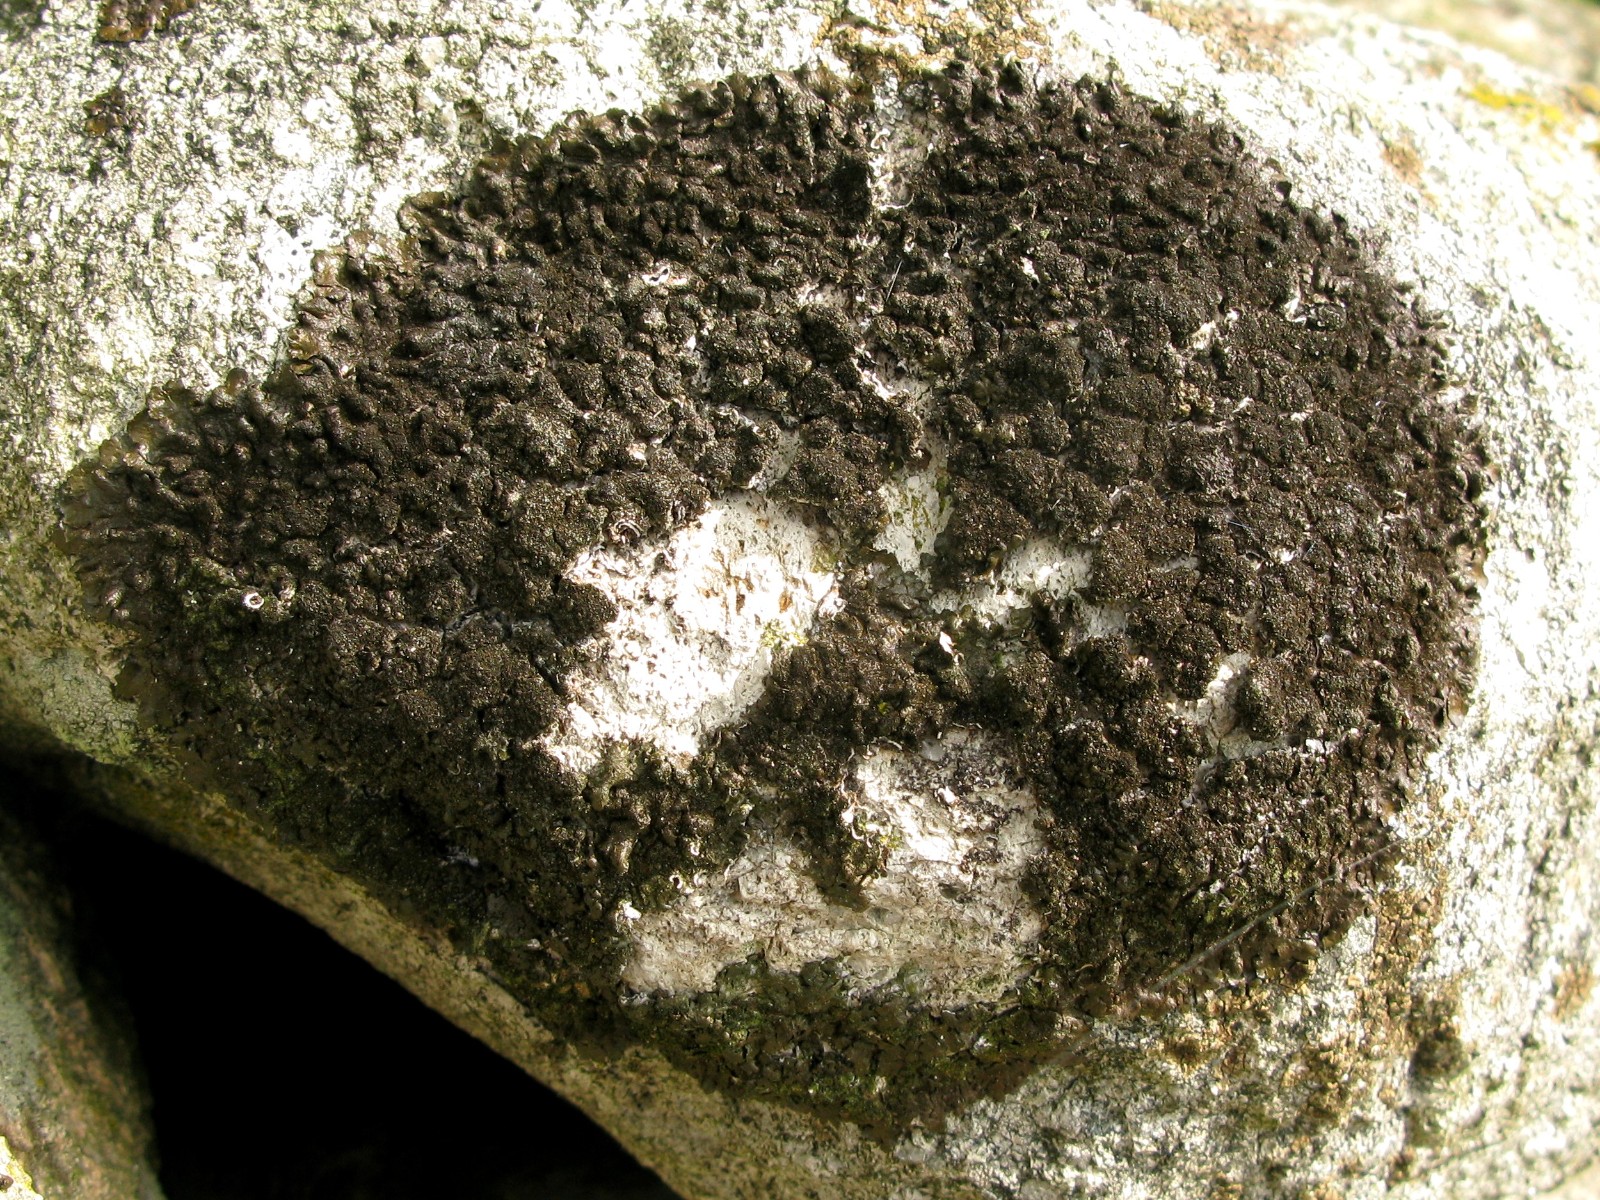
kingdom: Fungi
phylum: Ascomycota
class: Lecanoromycetes
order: Lecanorales
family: Parmeliaceae
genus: Melanelixia
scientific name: Melanelixia fuliginosa
